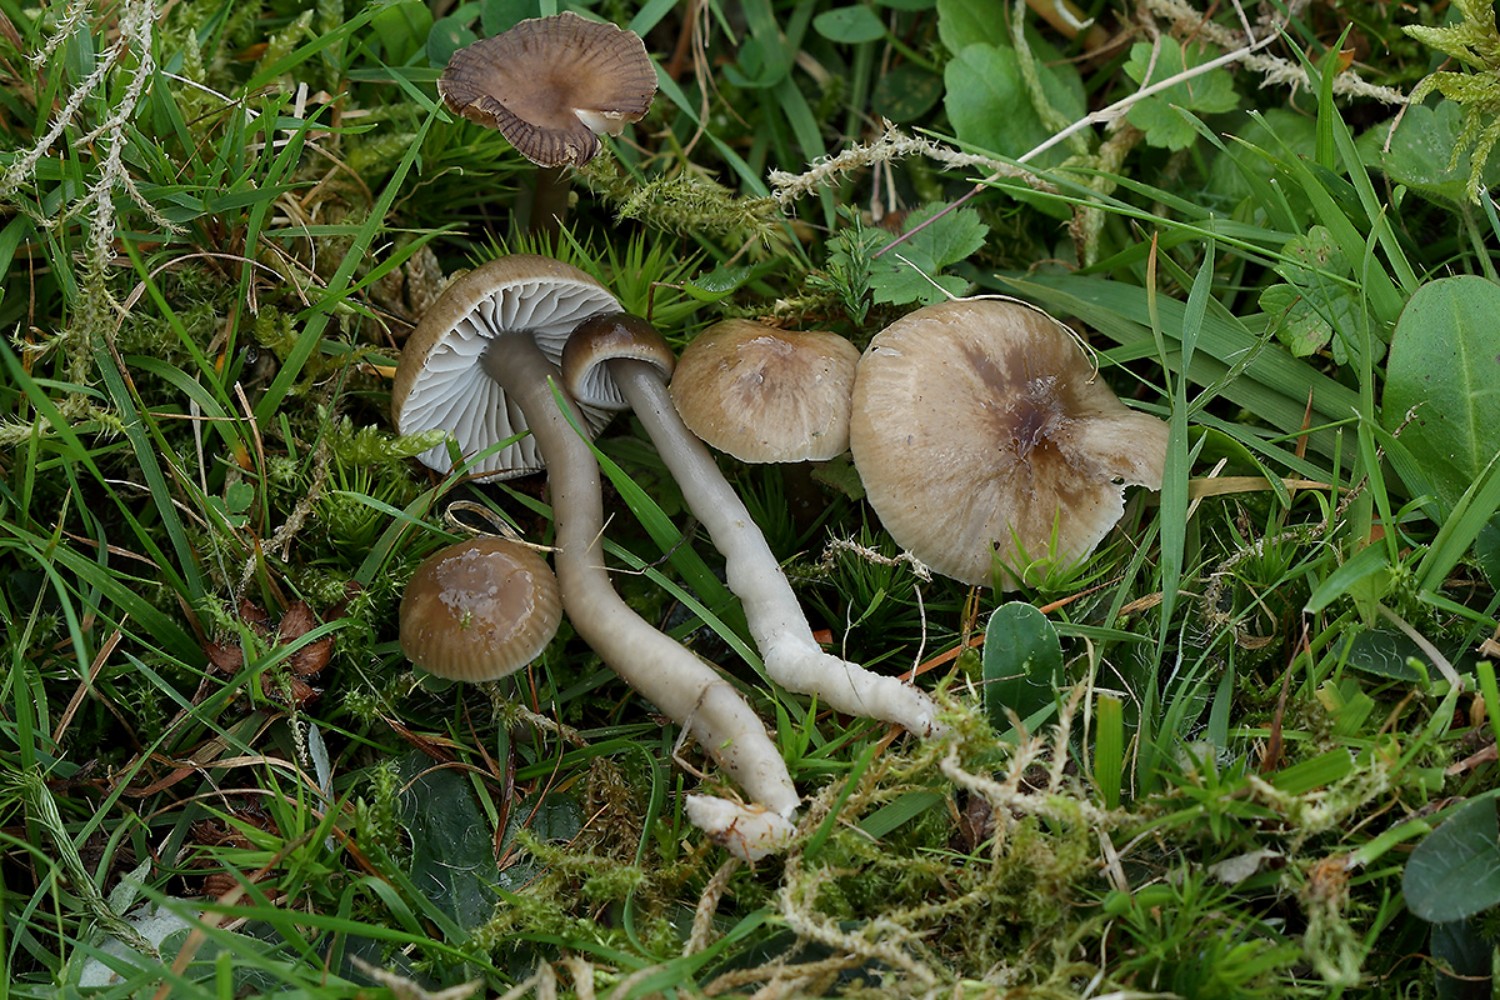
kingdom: Fungi
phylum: Basidiomycota
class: Agaricomycetes
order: Agaricales
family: Hygrophoraceae
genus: Gliophorus
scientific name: Gliophorus irrigatus
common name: slimet vokshat
